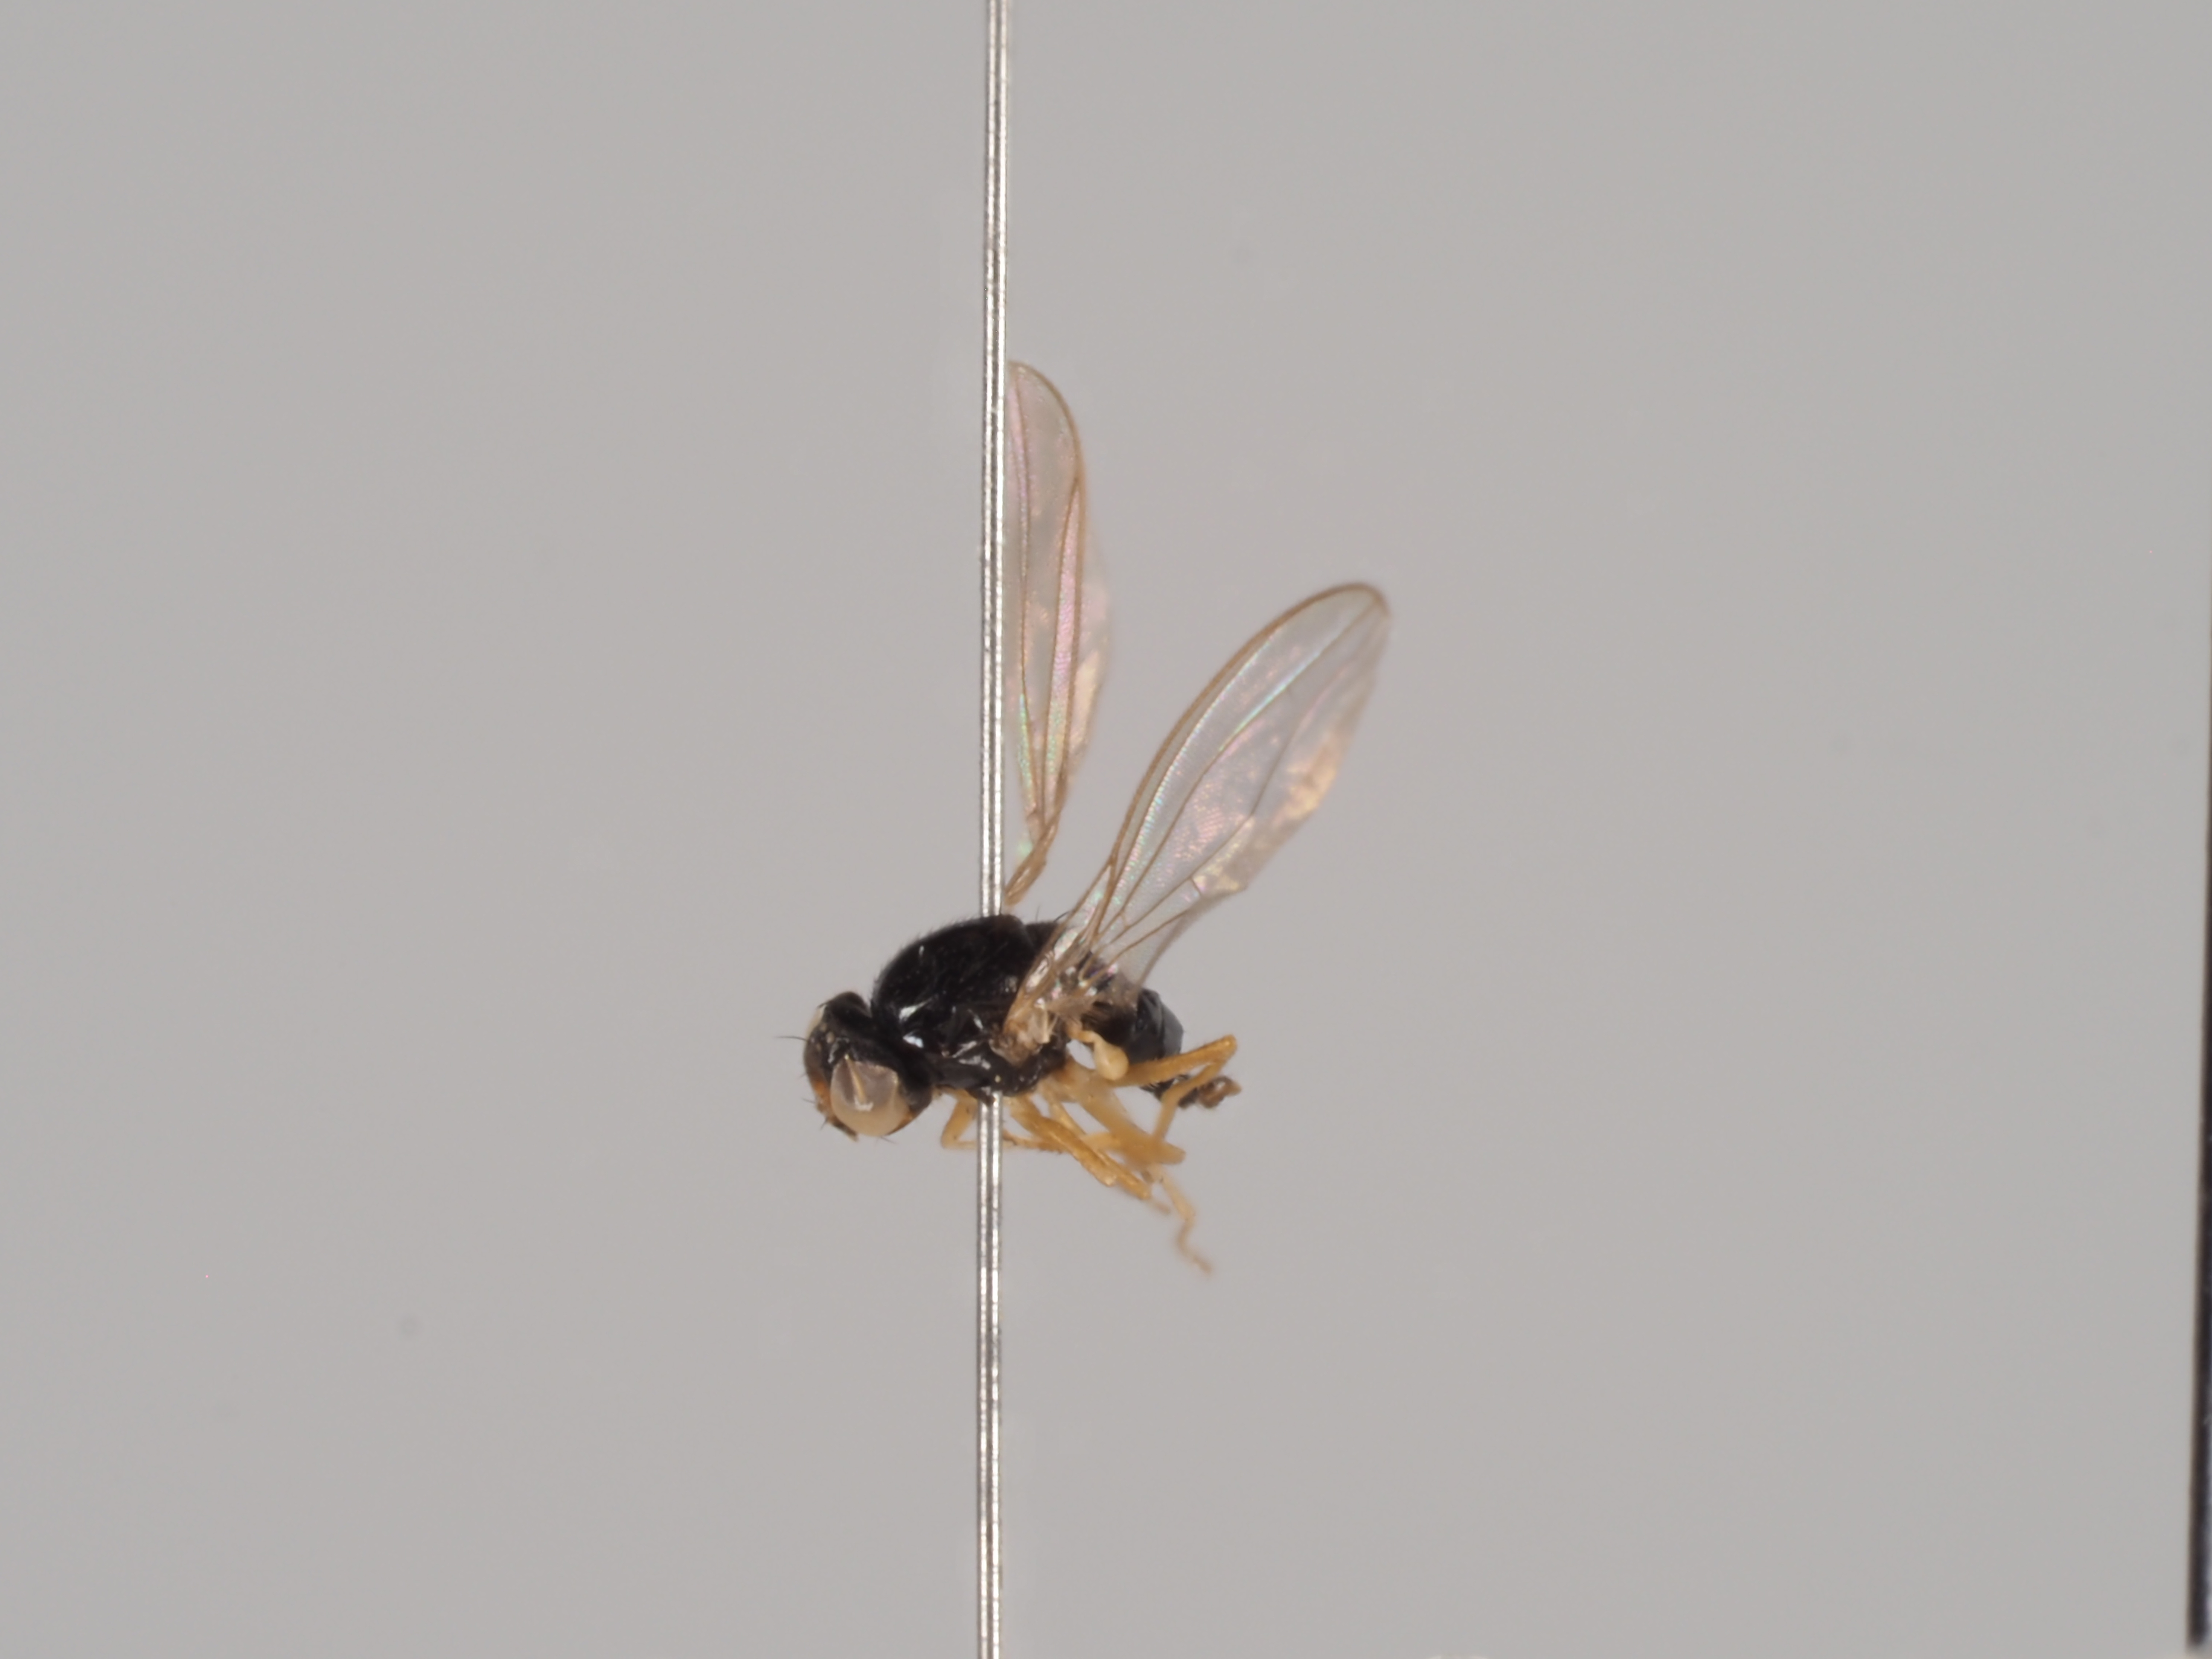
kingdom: Animalia
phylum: Arthropoda
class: Insecta
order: Diptera
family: Asteiidae
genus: Leiomyza
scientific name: Leiomyza curvinervis
